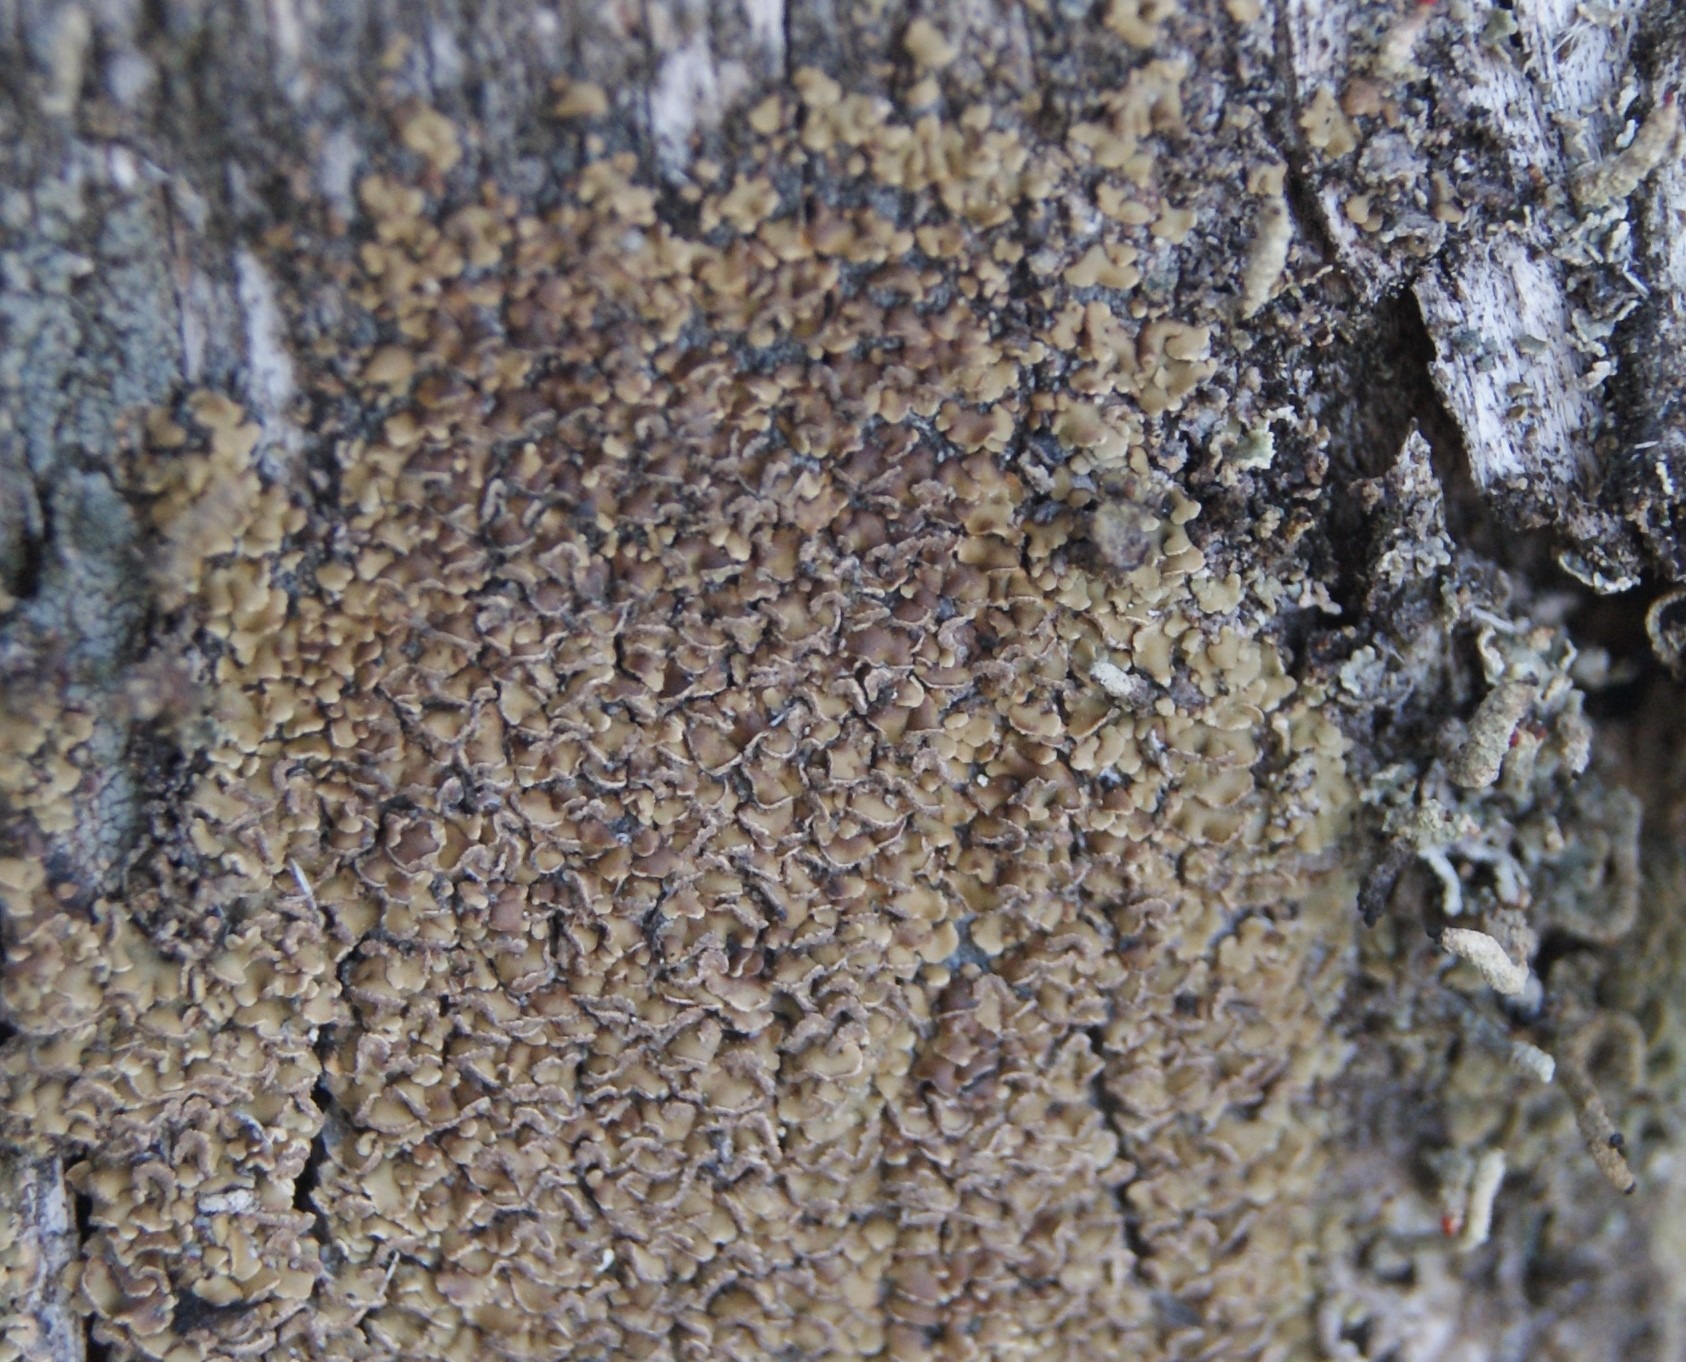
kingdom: Fungi
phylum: Ascomycota
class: Lecanoromycetes
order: Umbilicariales
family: Ophioparmaceae
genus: Hypocenomyce
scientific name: Hypocenomyce scalaris
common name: Småskællet muslinglav
